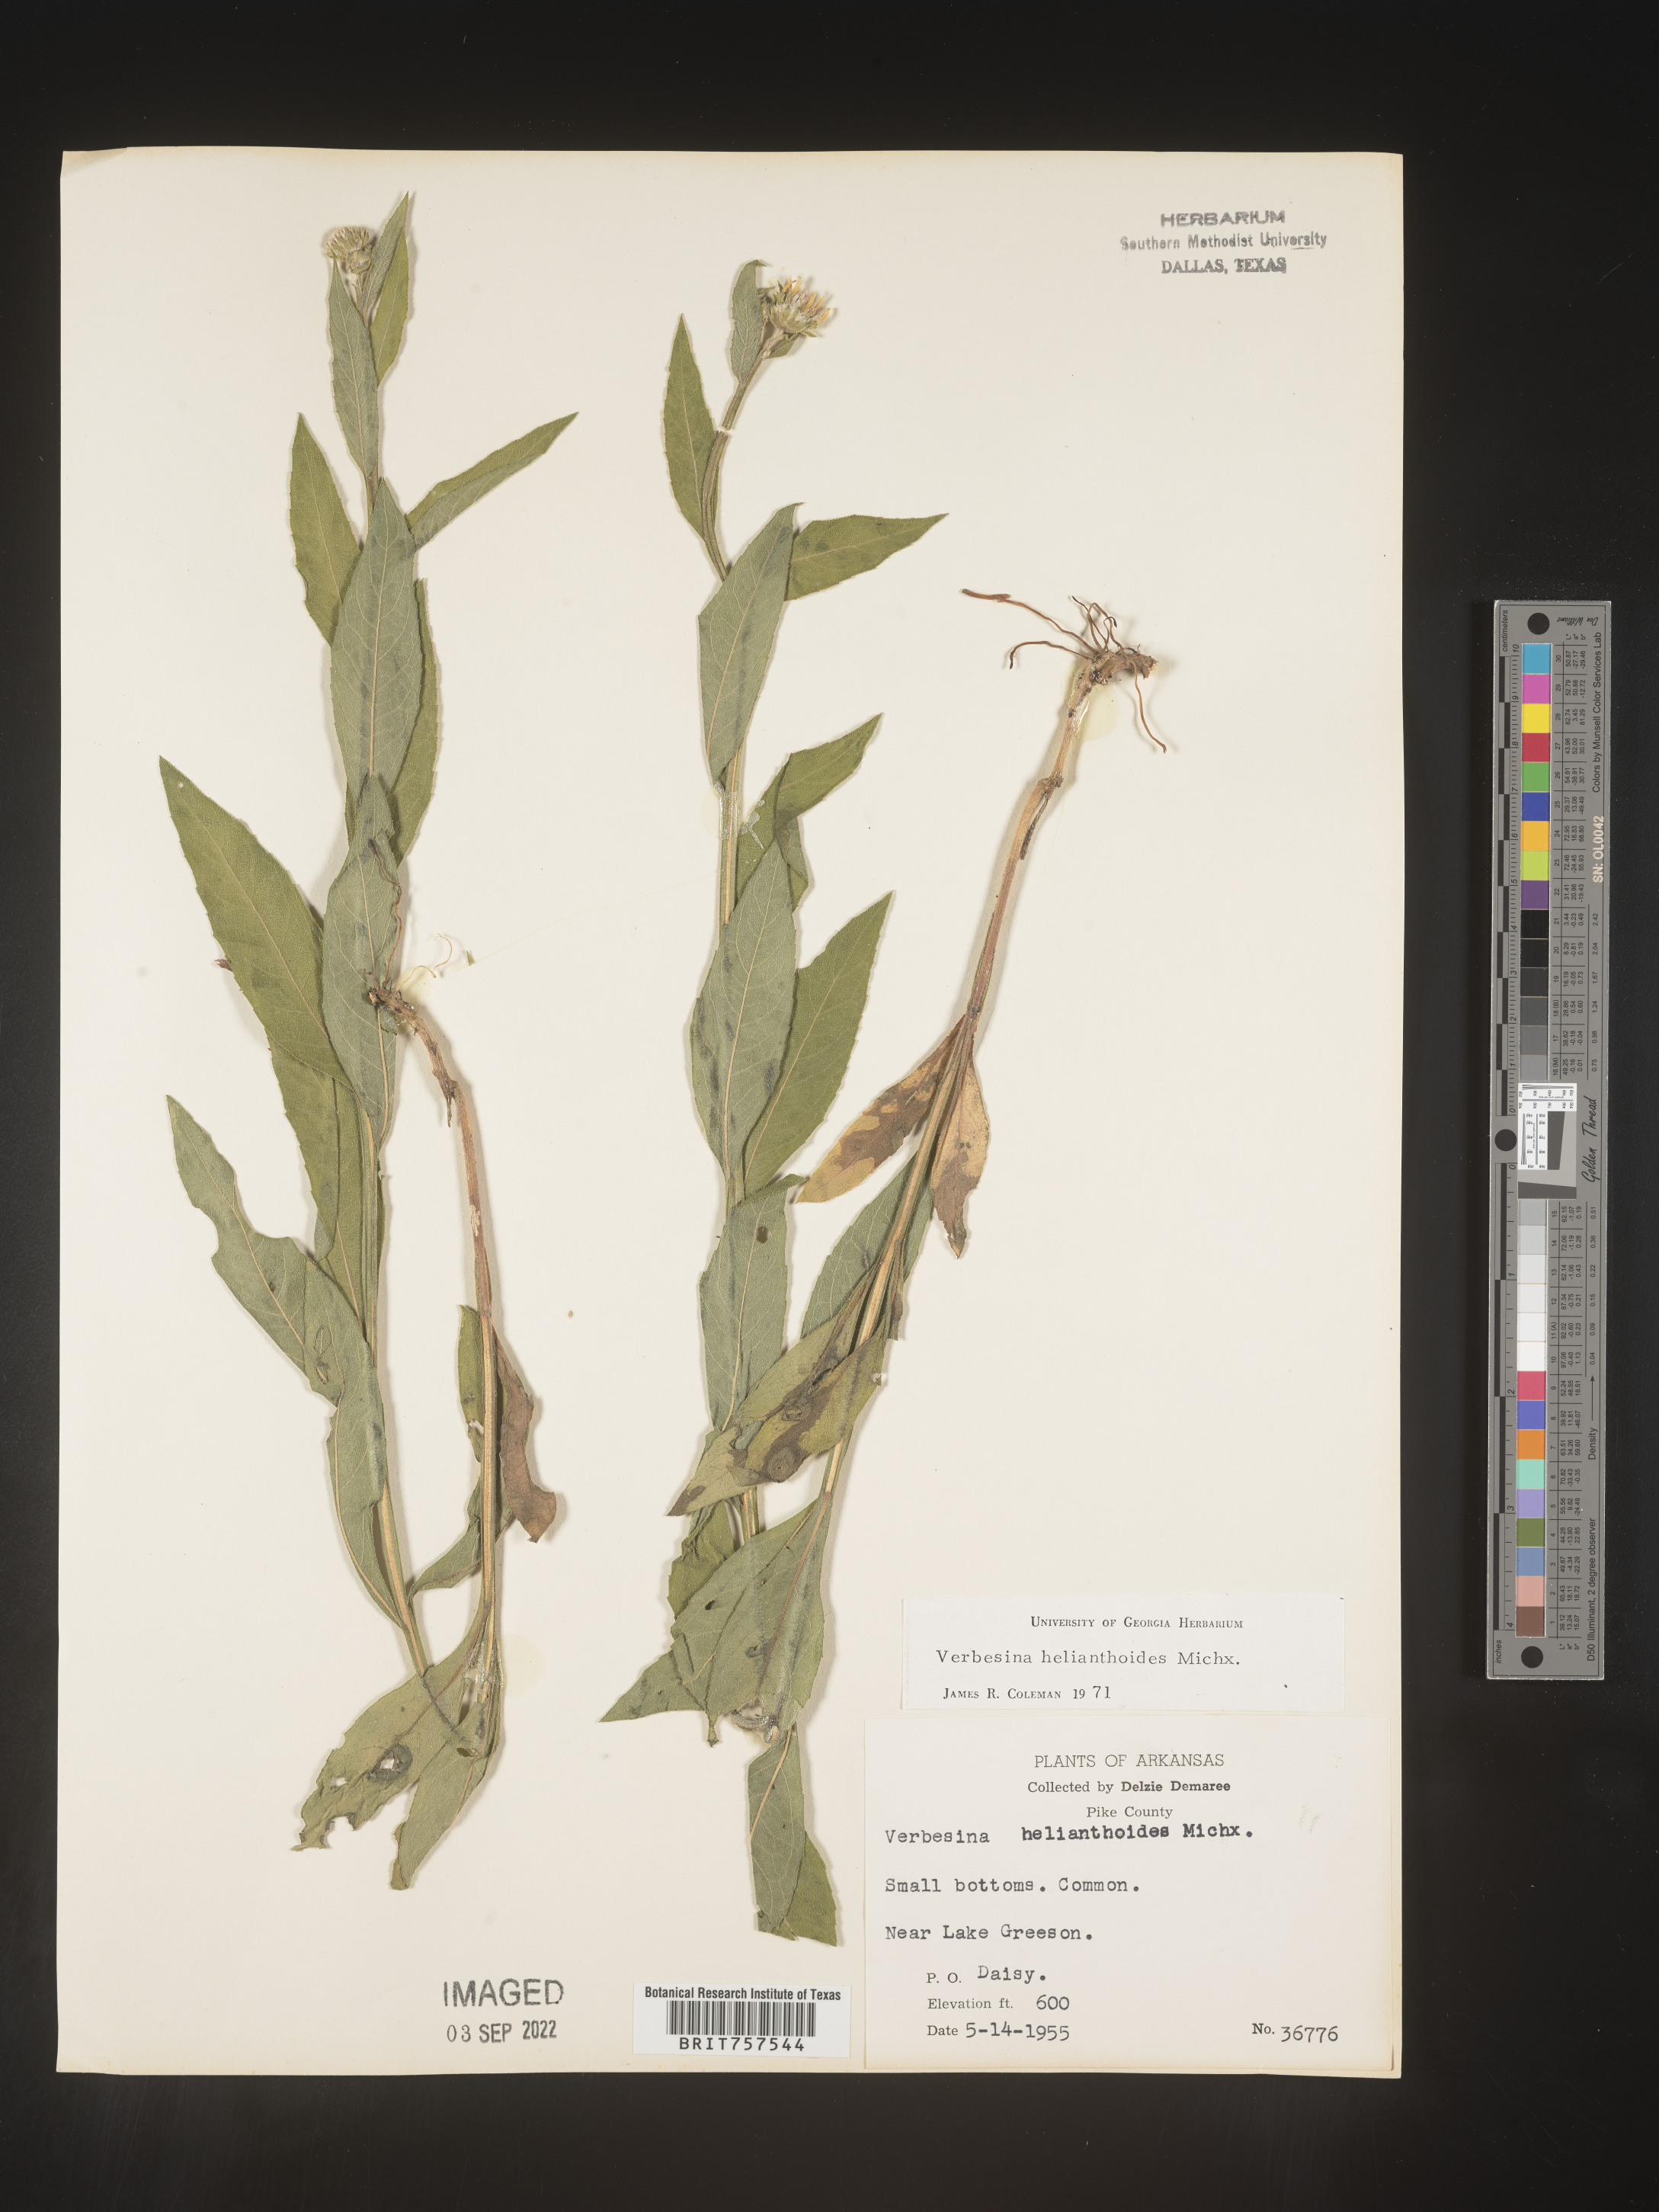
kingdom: Plantae
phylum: Tracheophyta
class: Magnoliopsida
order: Asterales
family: Asteraceae
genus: Verbesina
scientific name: Verbesina helianthoides
